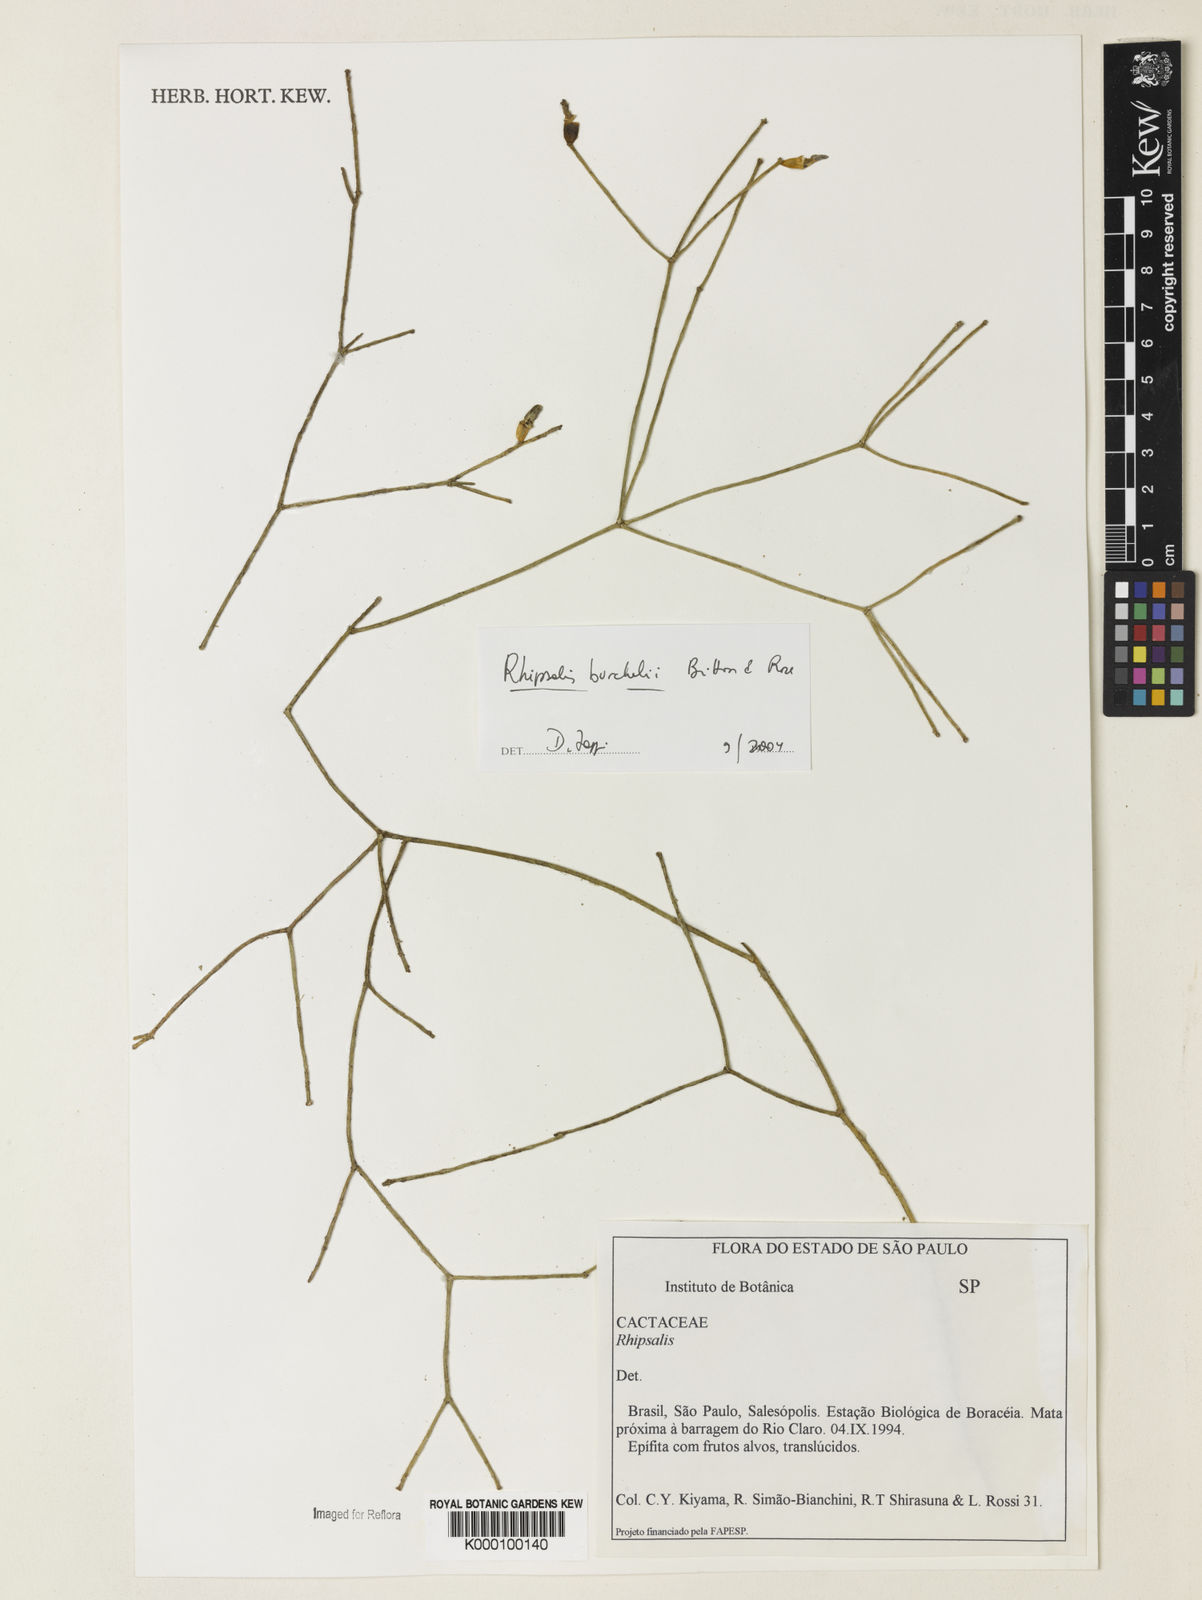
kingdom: Plantae
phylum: Tracheophyta
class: Magnoliopsida
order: Caryophyllales
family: Cactaceae
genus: Rhipsalis
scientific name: Rhipsalis burchellii
